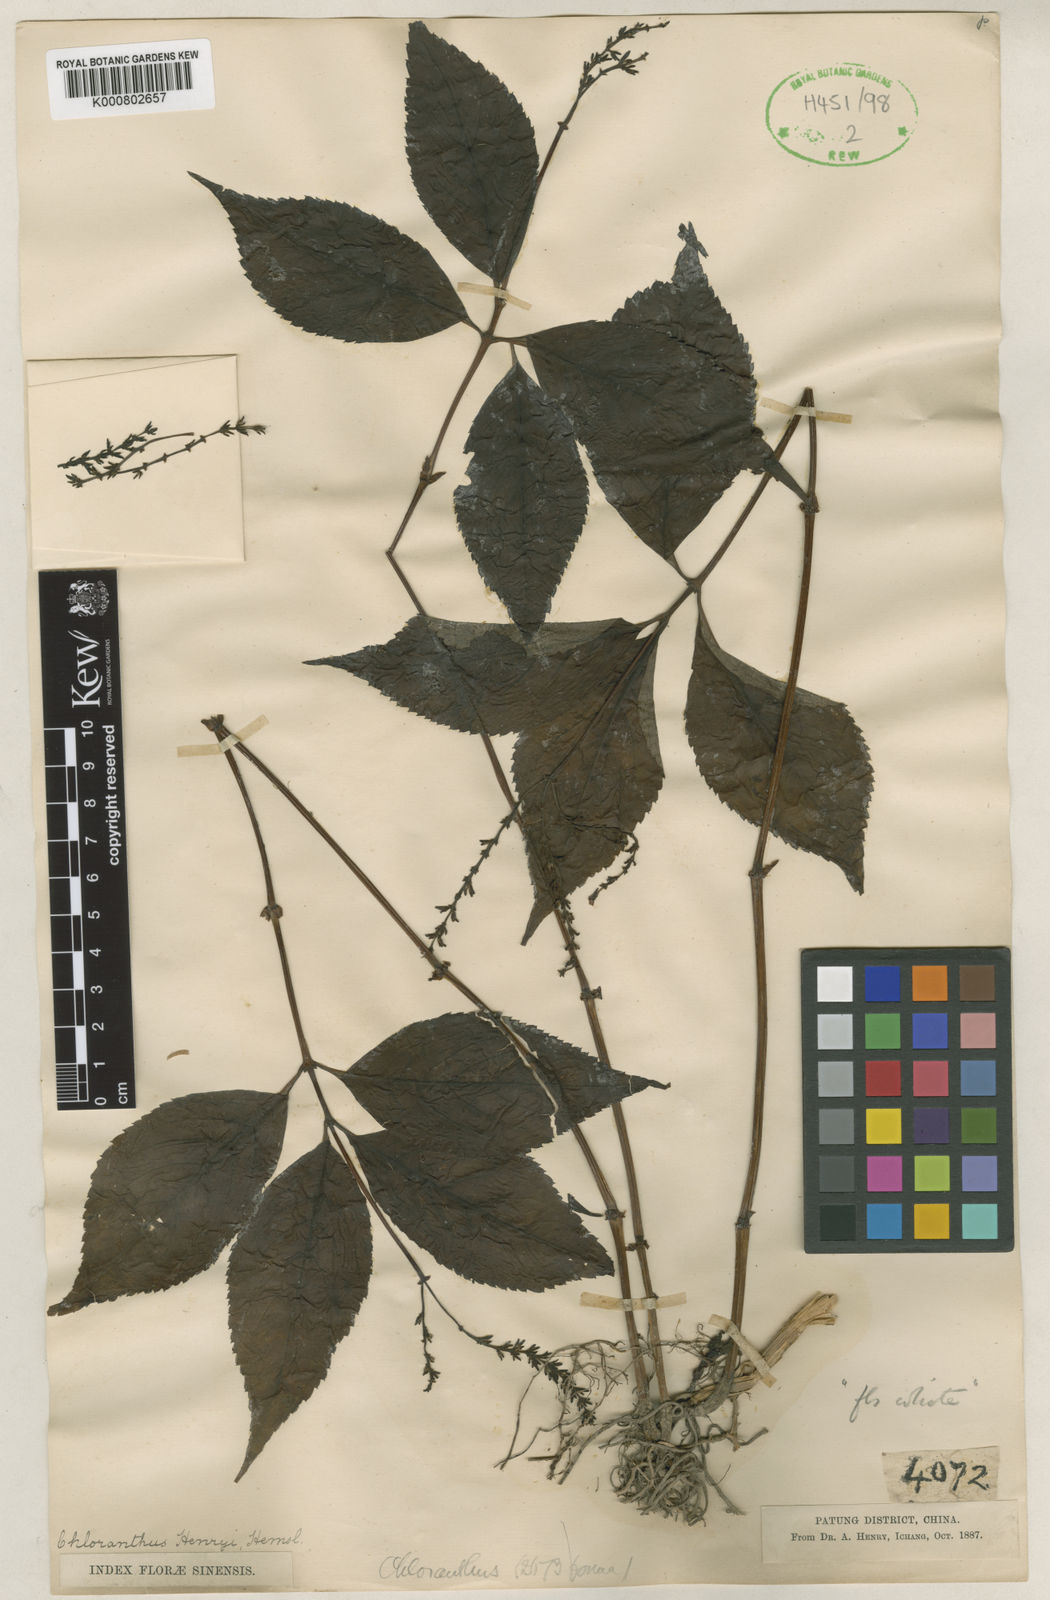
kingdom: Plantae
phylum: Tracheophyta
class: Magnoliopsida
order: Chloranthales
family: Chloranthaceae
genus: Chloranthus
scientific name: Chloranthus henryi
